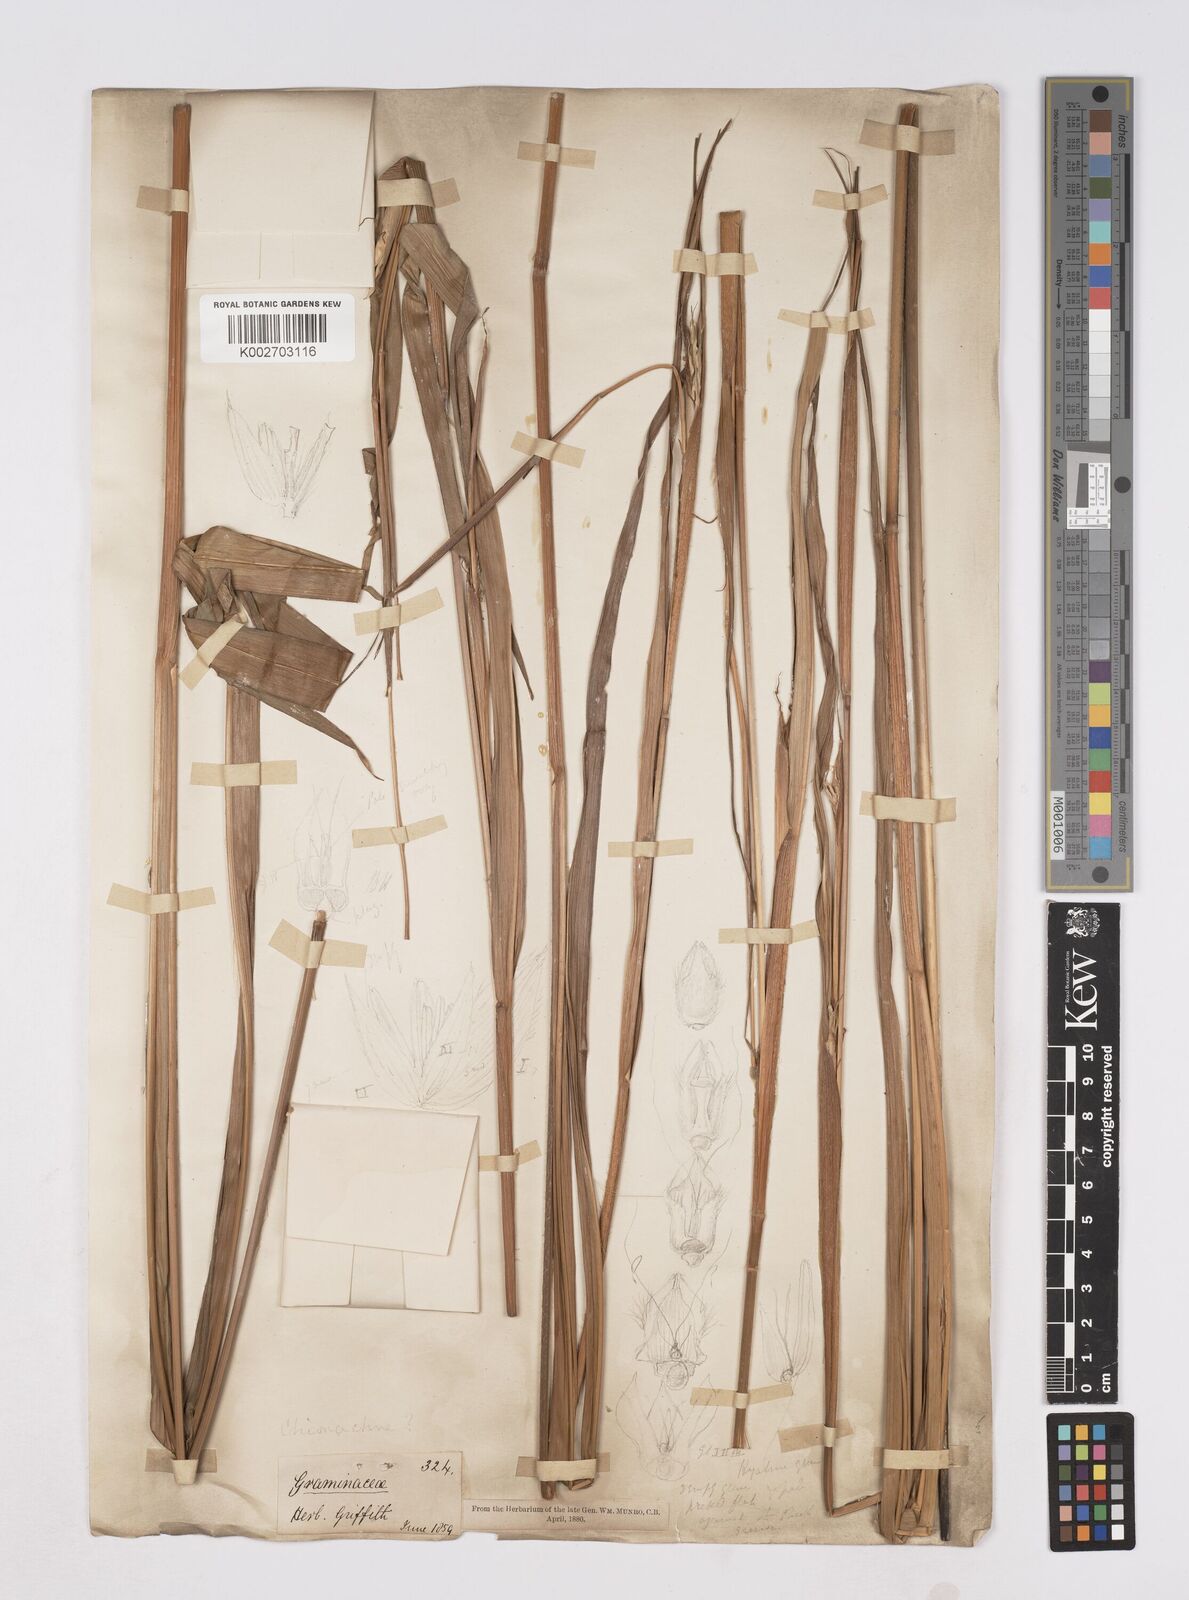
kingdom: Plantae
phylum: Tracheophyta
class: Liliopsida
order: Poales
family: Poaceae
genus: Polytoca
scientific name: Polytoca digitata
